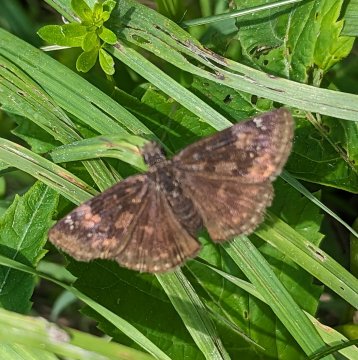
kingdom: Animalia
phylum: Arthropoda
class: Insecta
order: Lepidoptera
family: Hesperiidae
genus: Gesta
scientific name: Gesta
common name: Wild Indigo Duskywing
